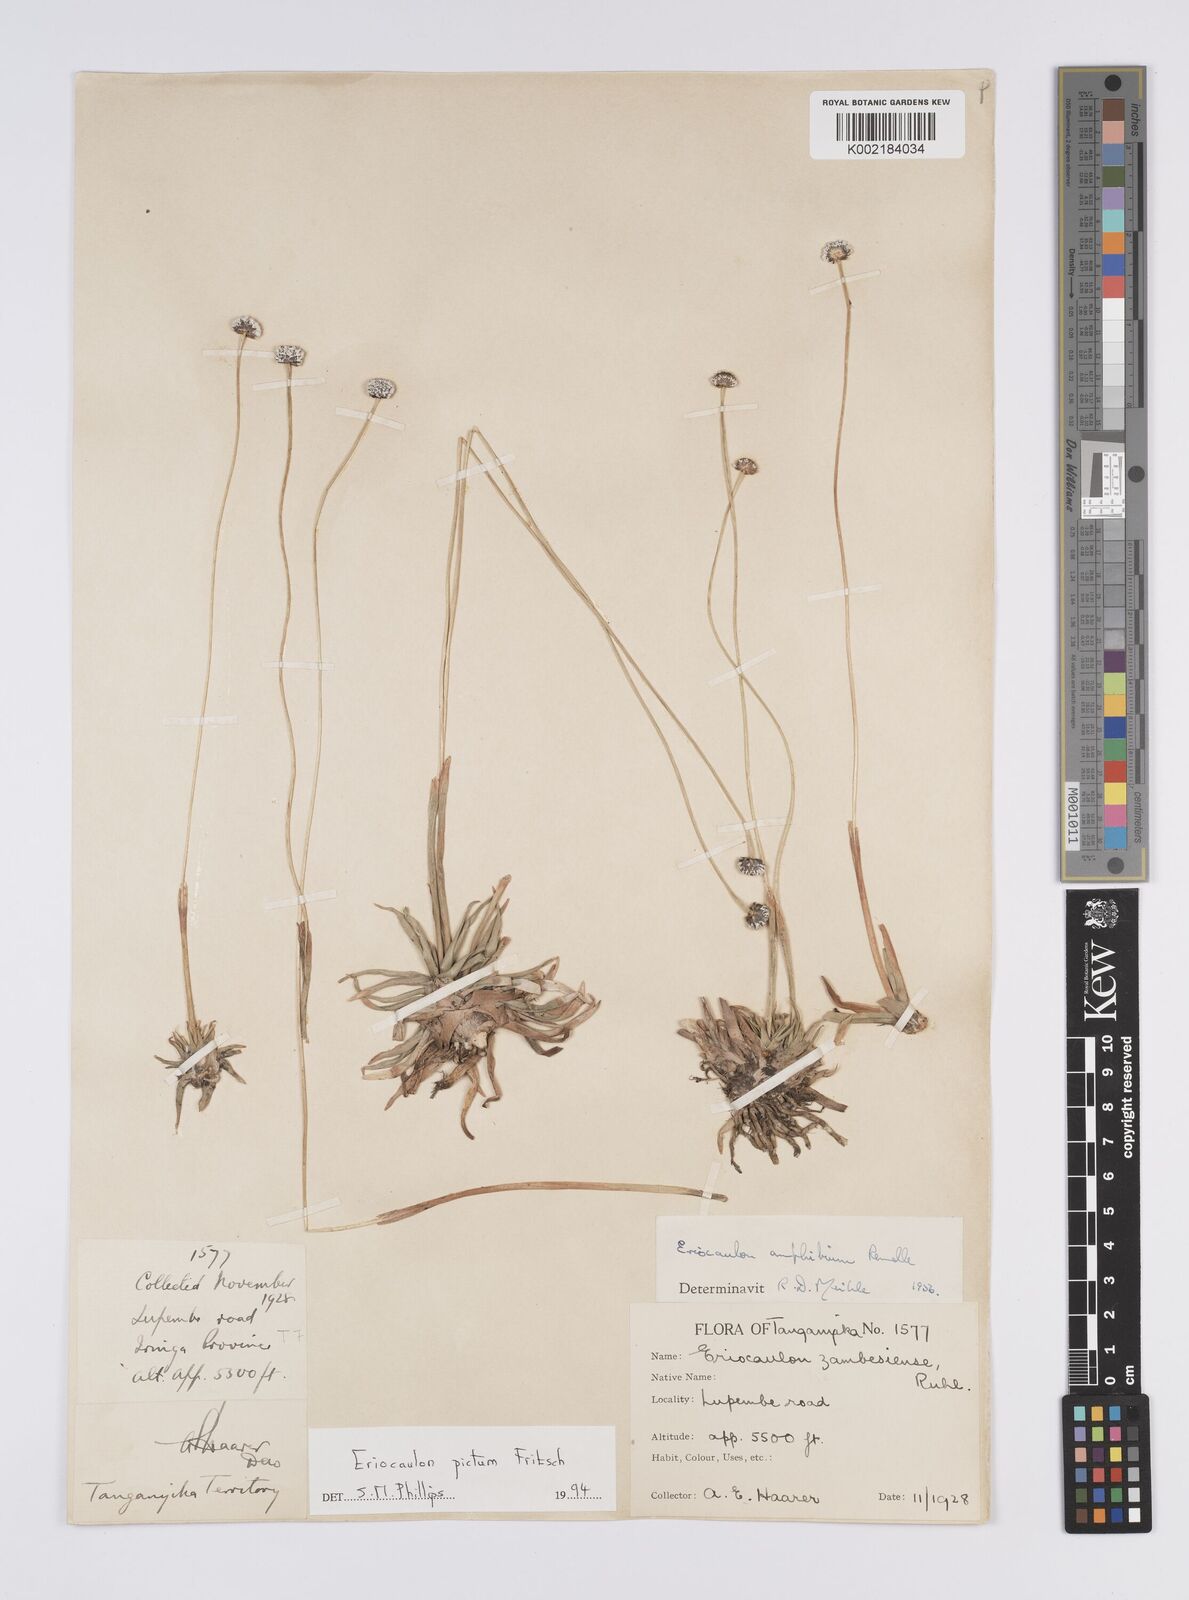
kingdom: Plantae
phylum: Tracheophyta
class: Liliopsida
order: Poales
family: Eriocaulaceae
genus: Eriocaulon
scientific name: Eriocaulon pictum
